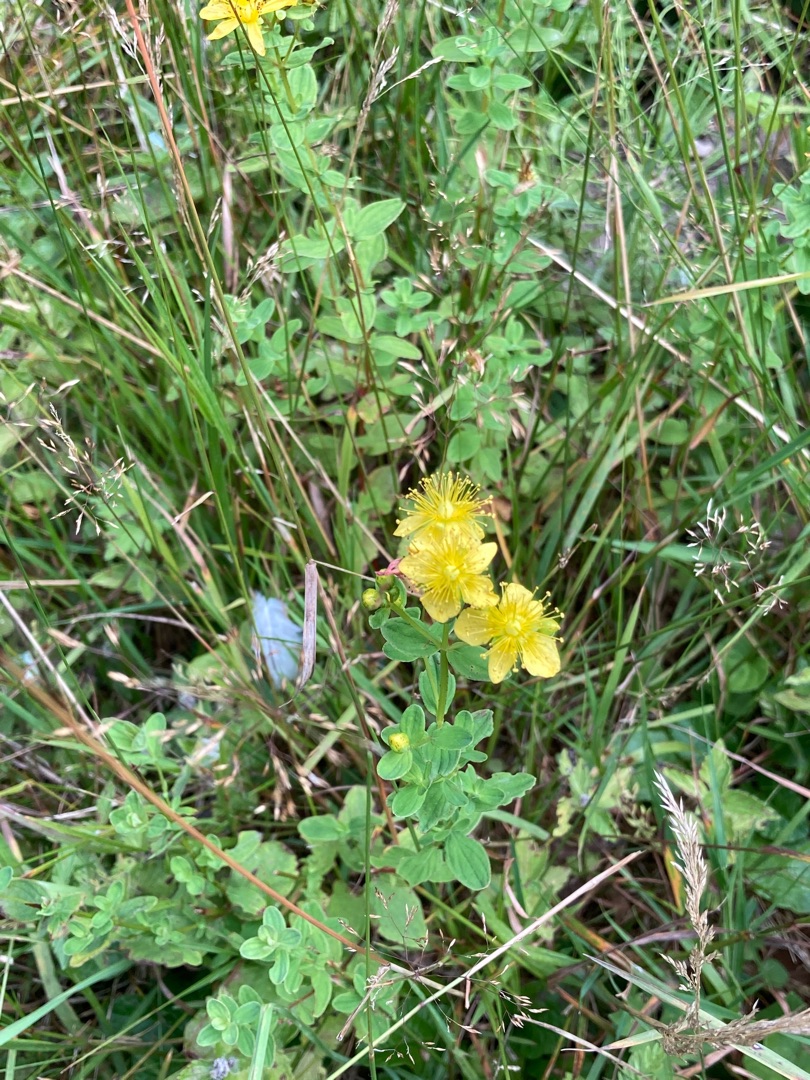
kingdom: Plantae
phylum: Tracheophyta
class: Magnoliopsida
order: Malpighiales
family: Hypericaceae
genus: Hypericum
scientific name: Hypericum maculatum
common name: Kantet perikon
